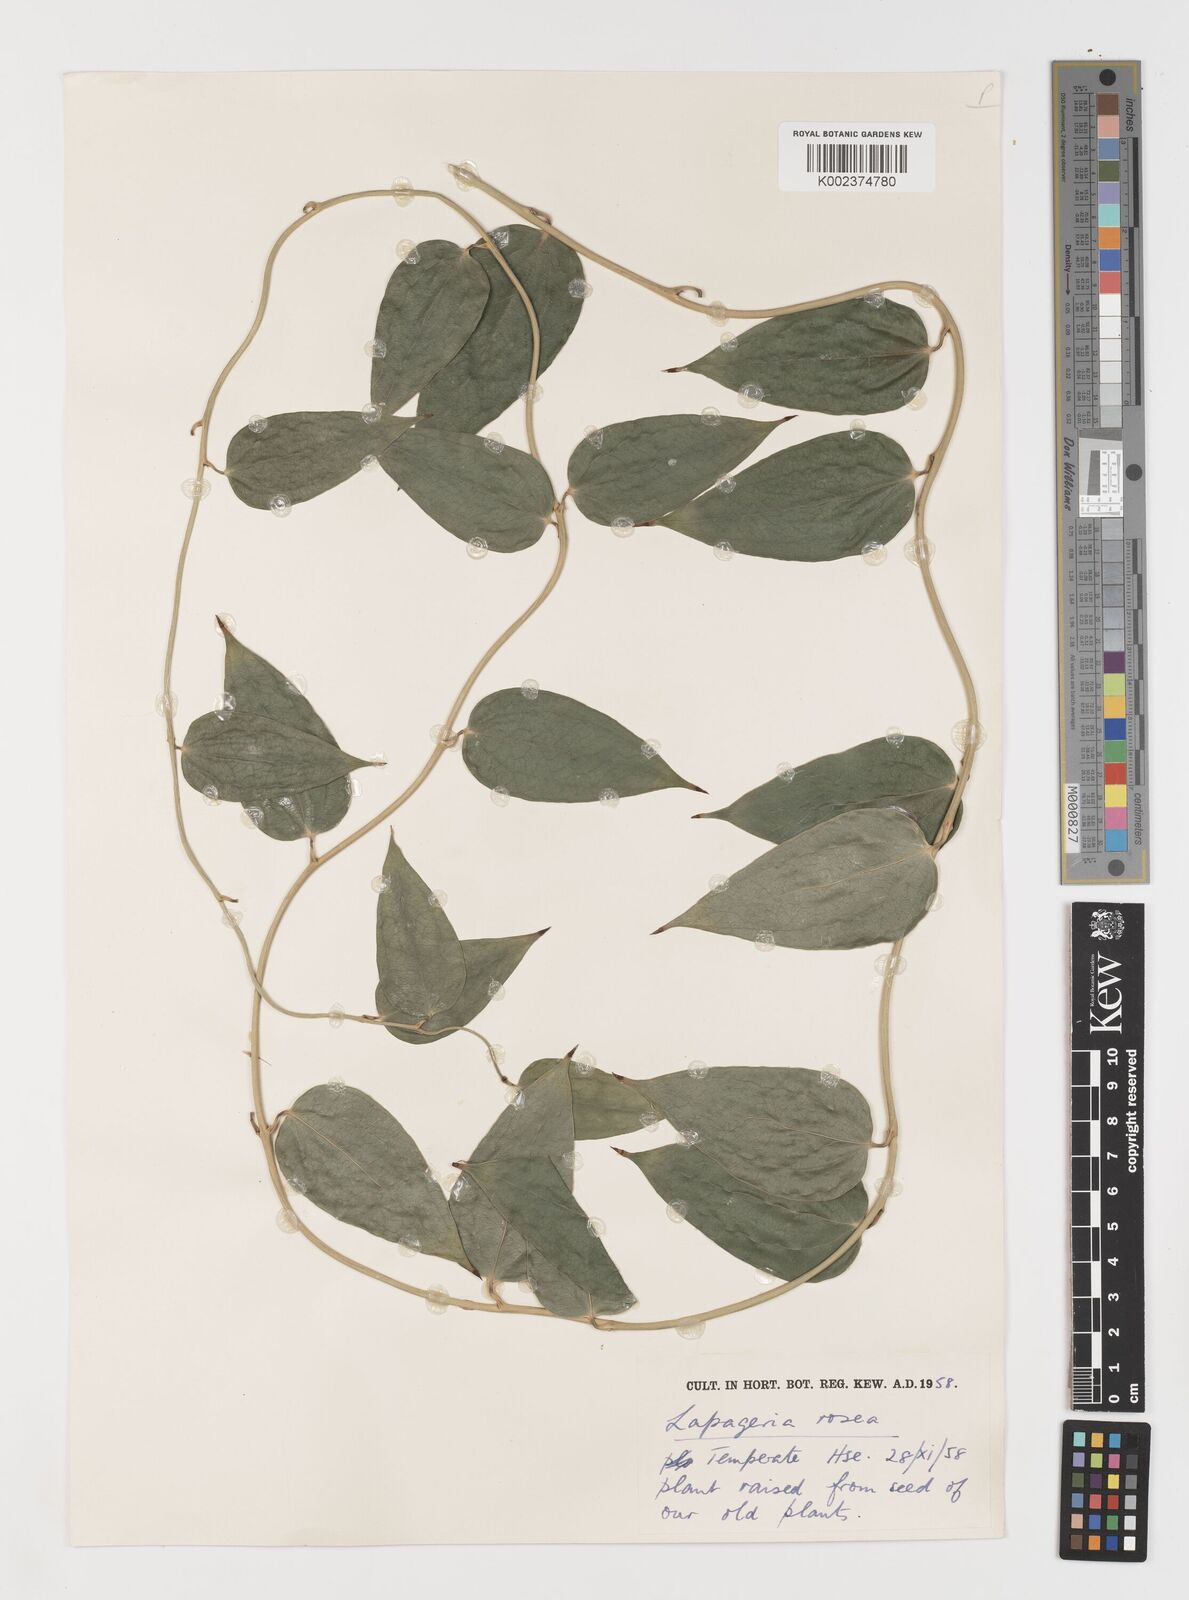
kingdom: Plantae
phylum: Tracheophyta
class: Liliopsida
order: Liliales
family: Philesiaceae
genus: Lapageria
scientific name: Lapageria rosea
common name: Chilean-bellflower
